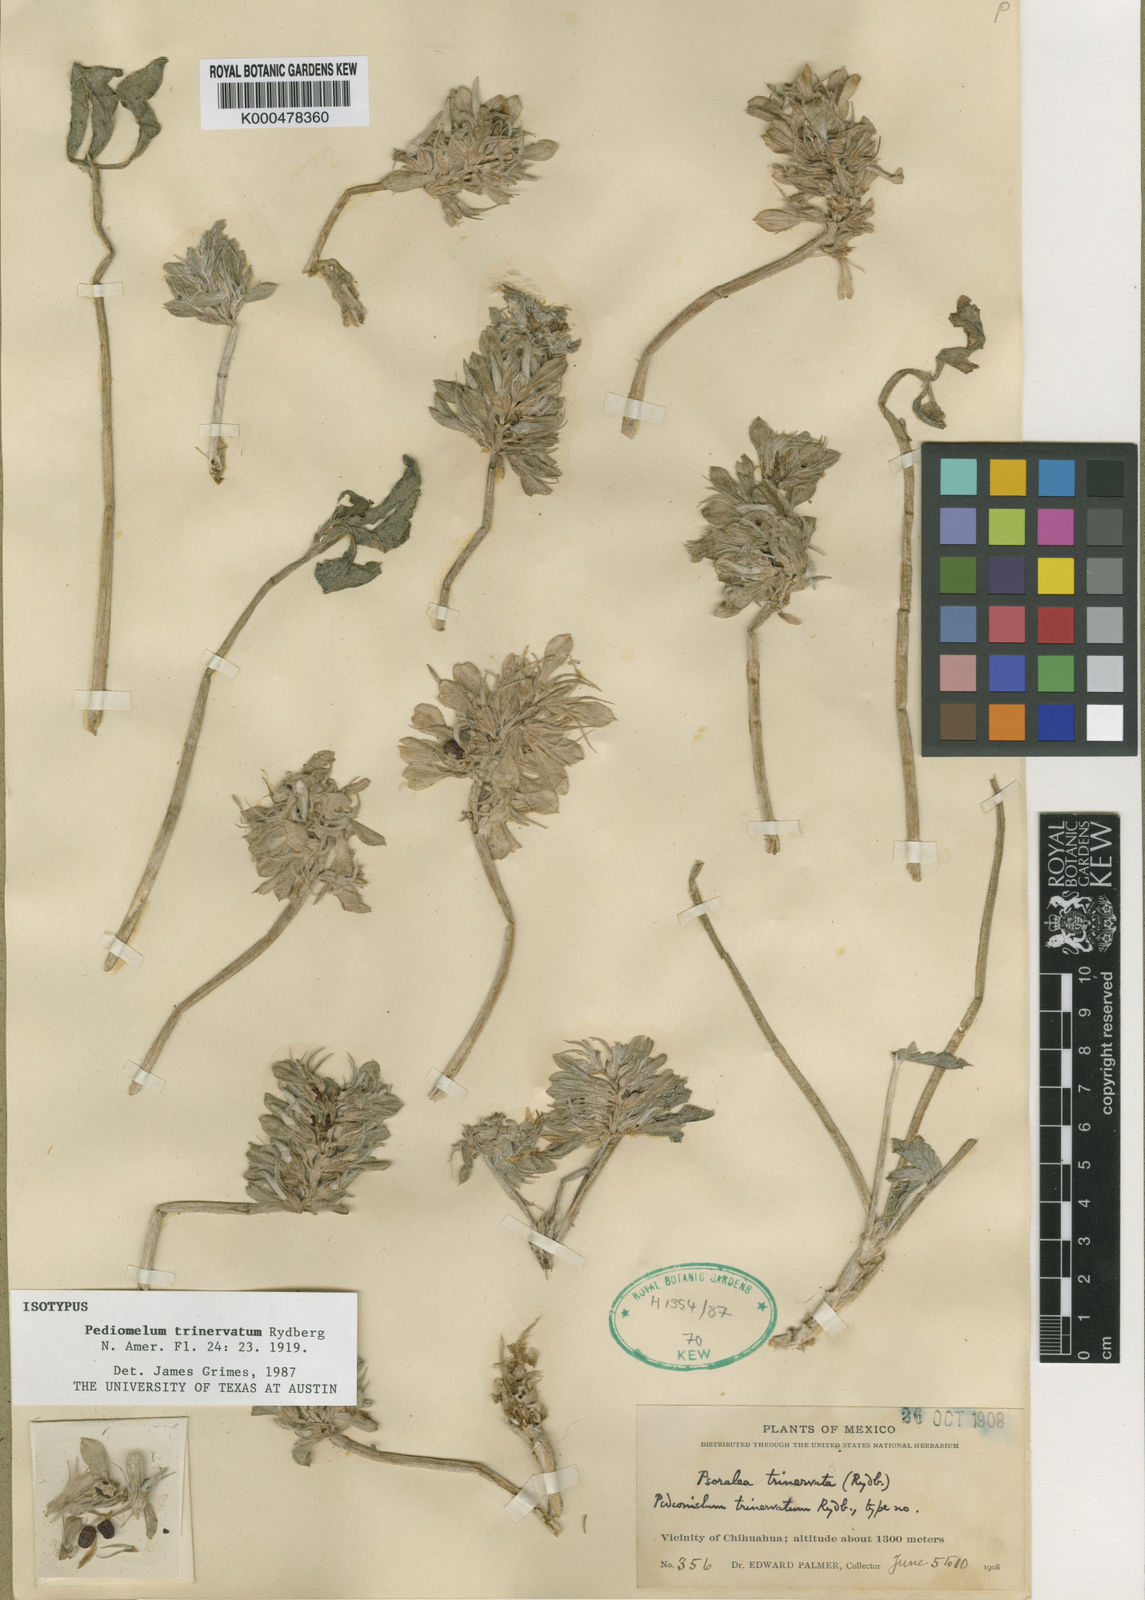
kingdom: Plantae
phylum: Tracheophyta
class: Magnoliopsida
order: Fabales
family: Fabaceae
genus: Pediomelum
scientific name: Pediomelum pentaphyllum
